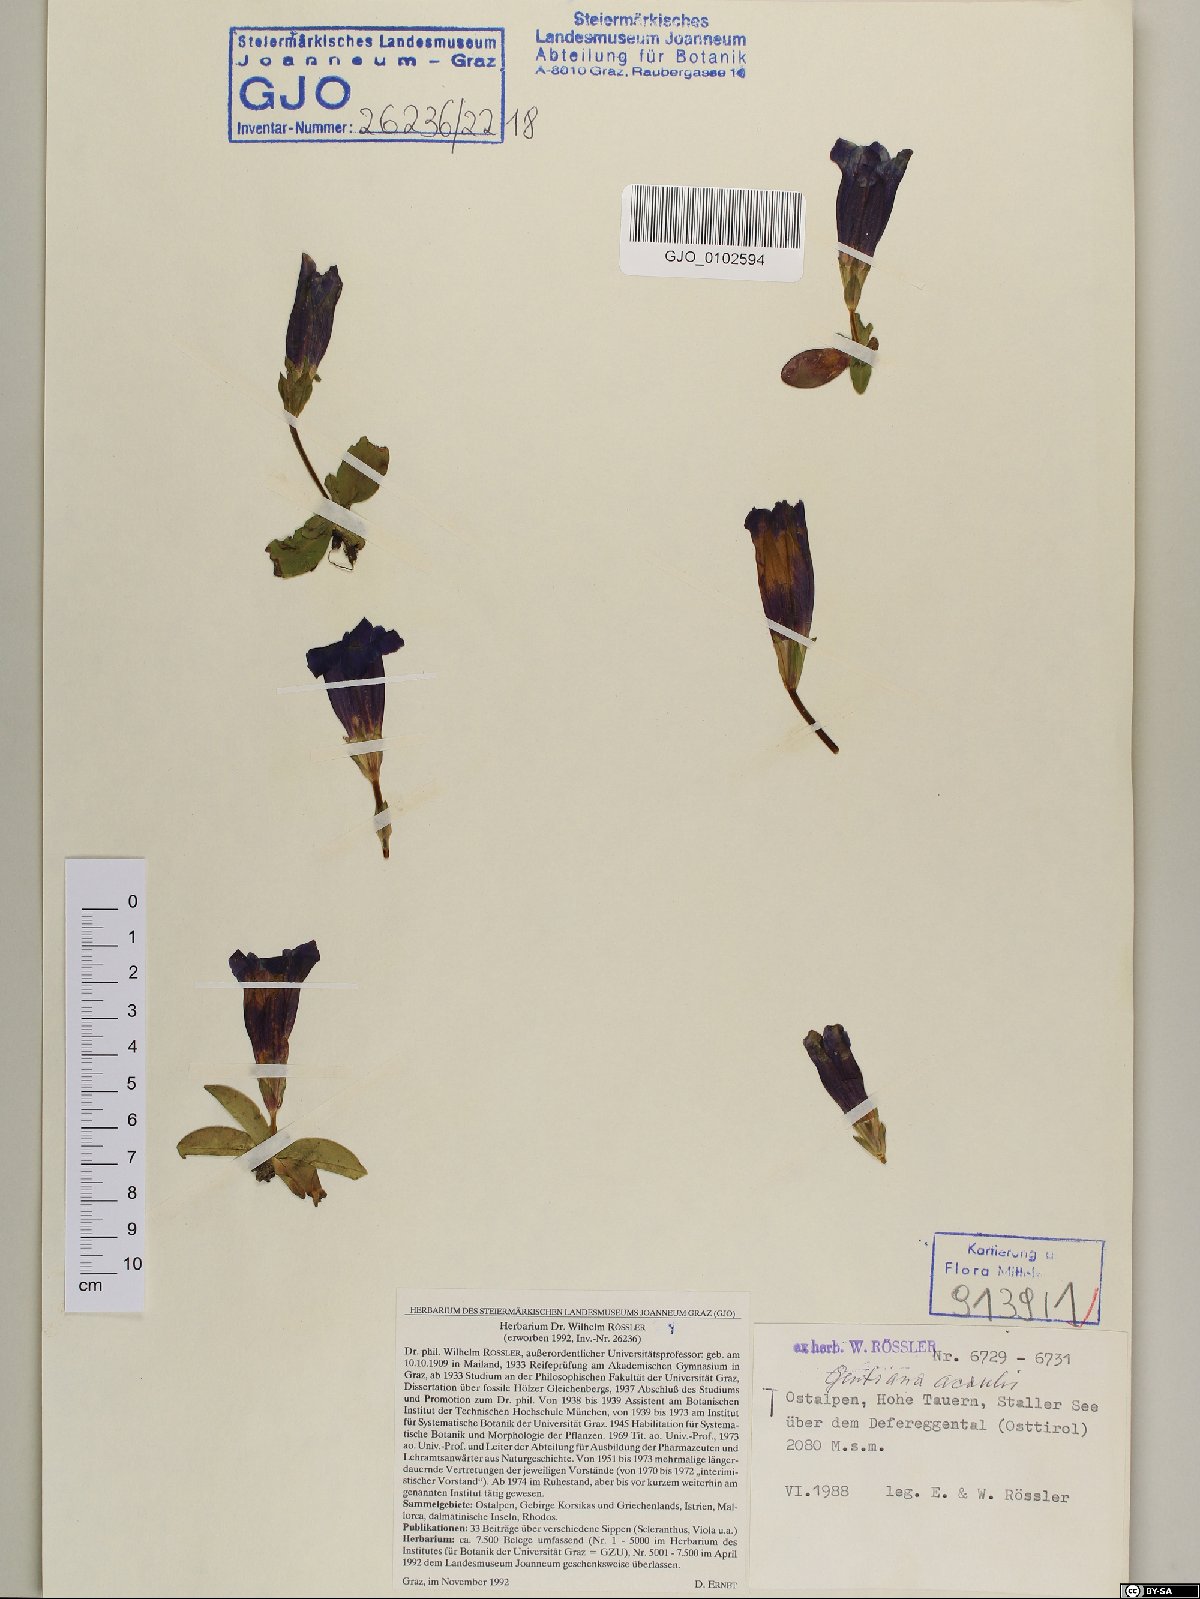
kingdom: Plantae
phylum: Tracheophyta
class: Magnoliopsida
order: Gentianales
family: Gentianaceae
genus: Gentiana
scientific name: Gentiana acaulis
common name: Trumpet gentian
